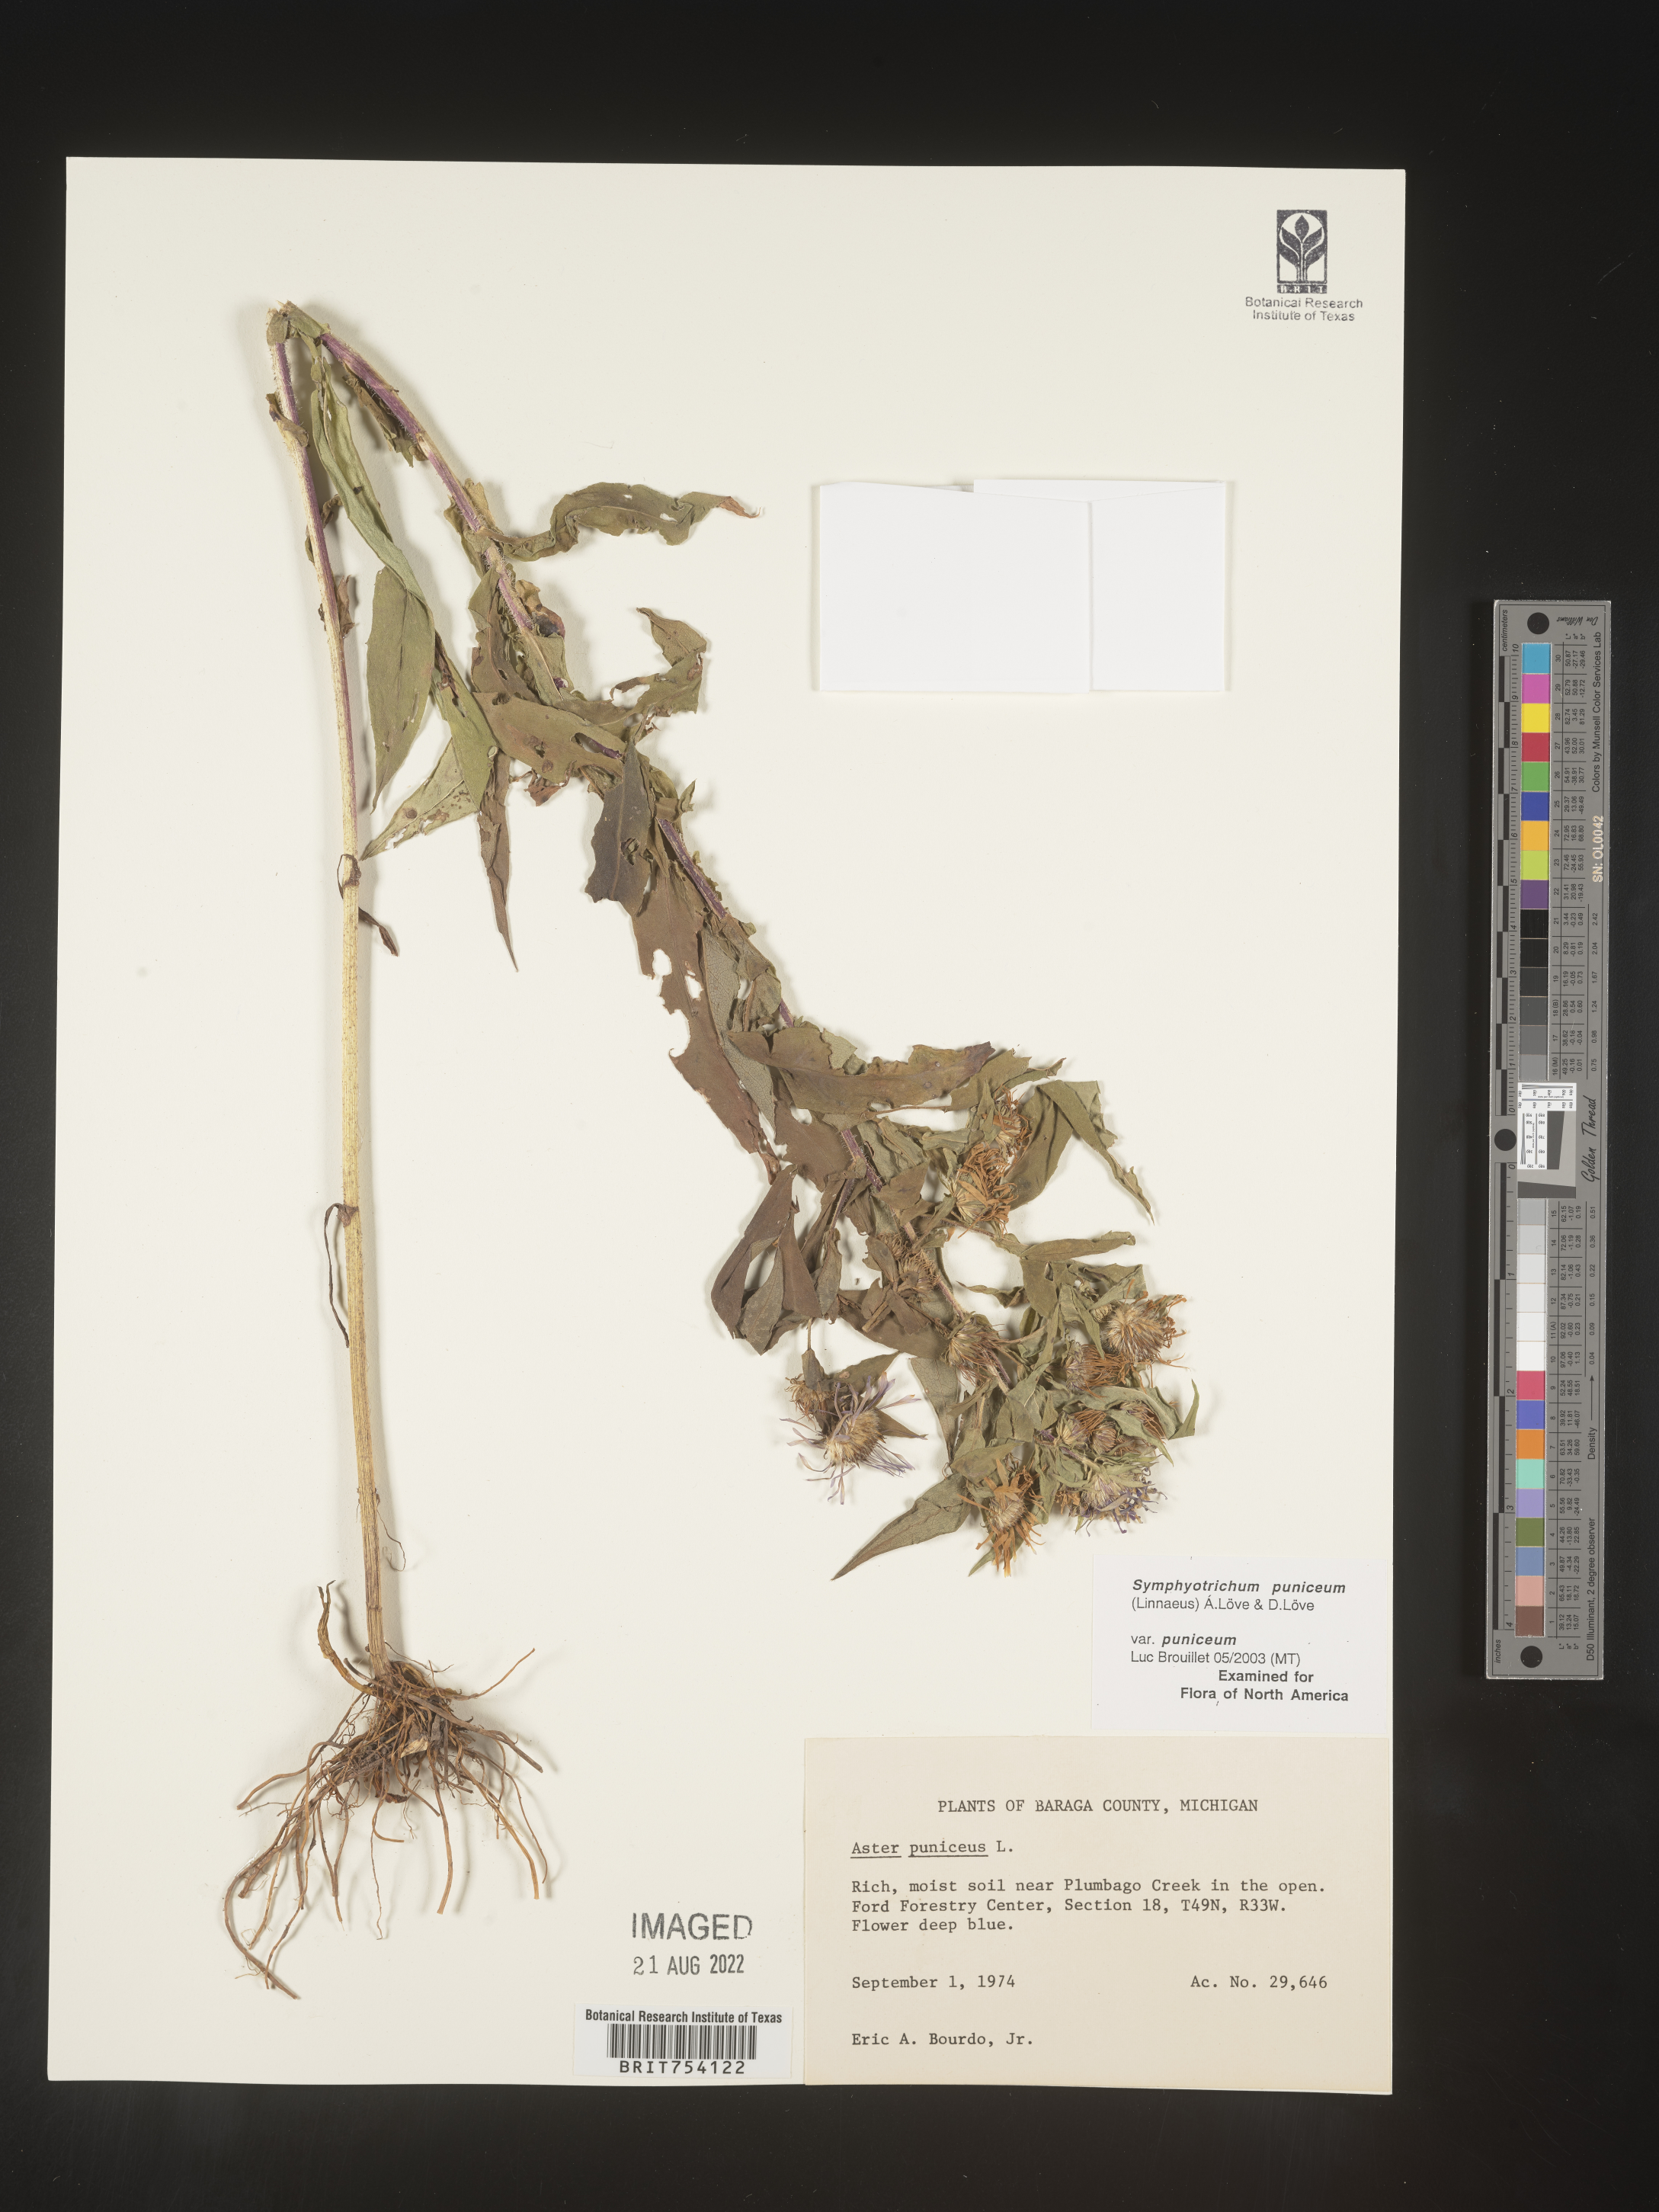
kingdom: Plantae
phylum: Tracheophyta
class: Magnoliopsida
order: Asterales
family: Asteraceae
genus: Symphyotrichum
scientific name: Symphyotrichum puniceum
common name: Bog aster
